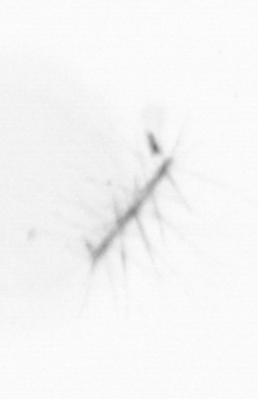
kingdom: Chromista
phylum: Ochrophyta
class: Bacillariophyceae
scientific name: Bacillariophyceae
